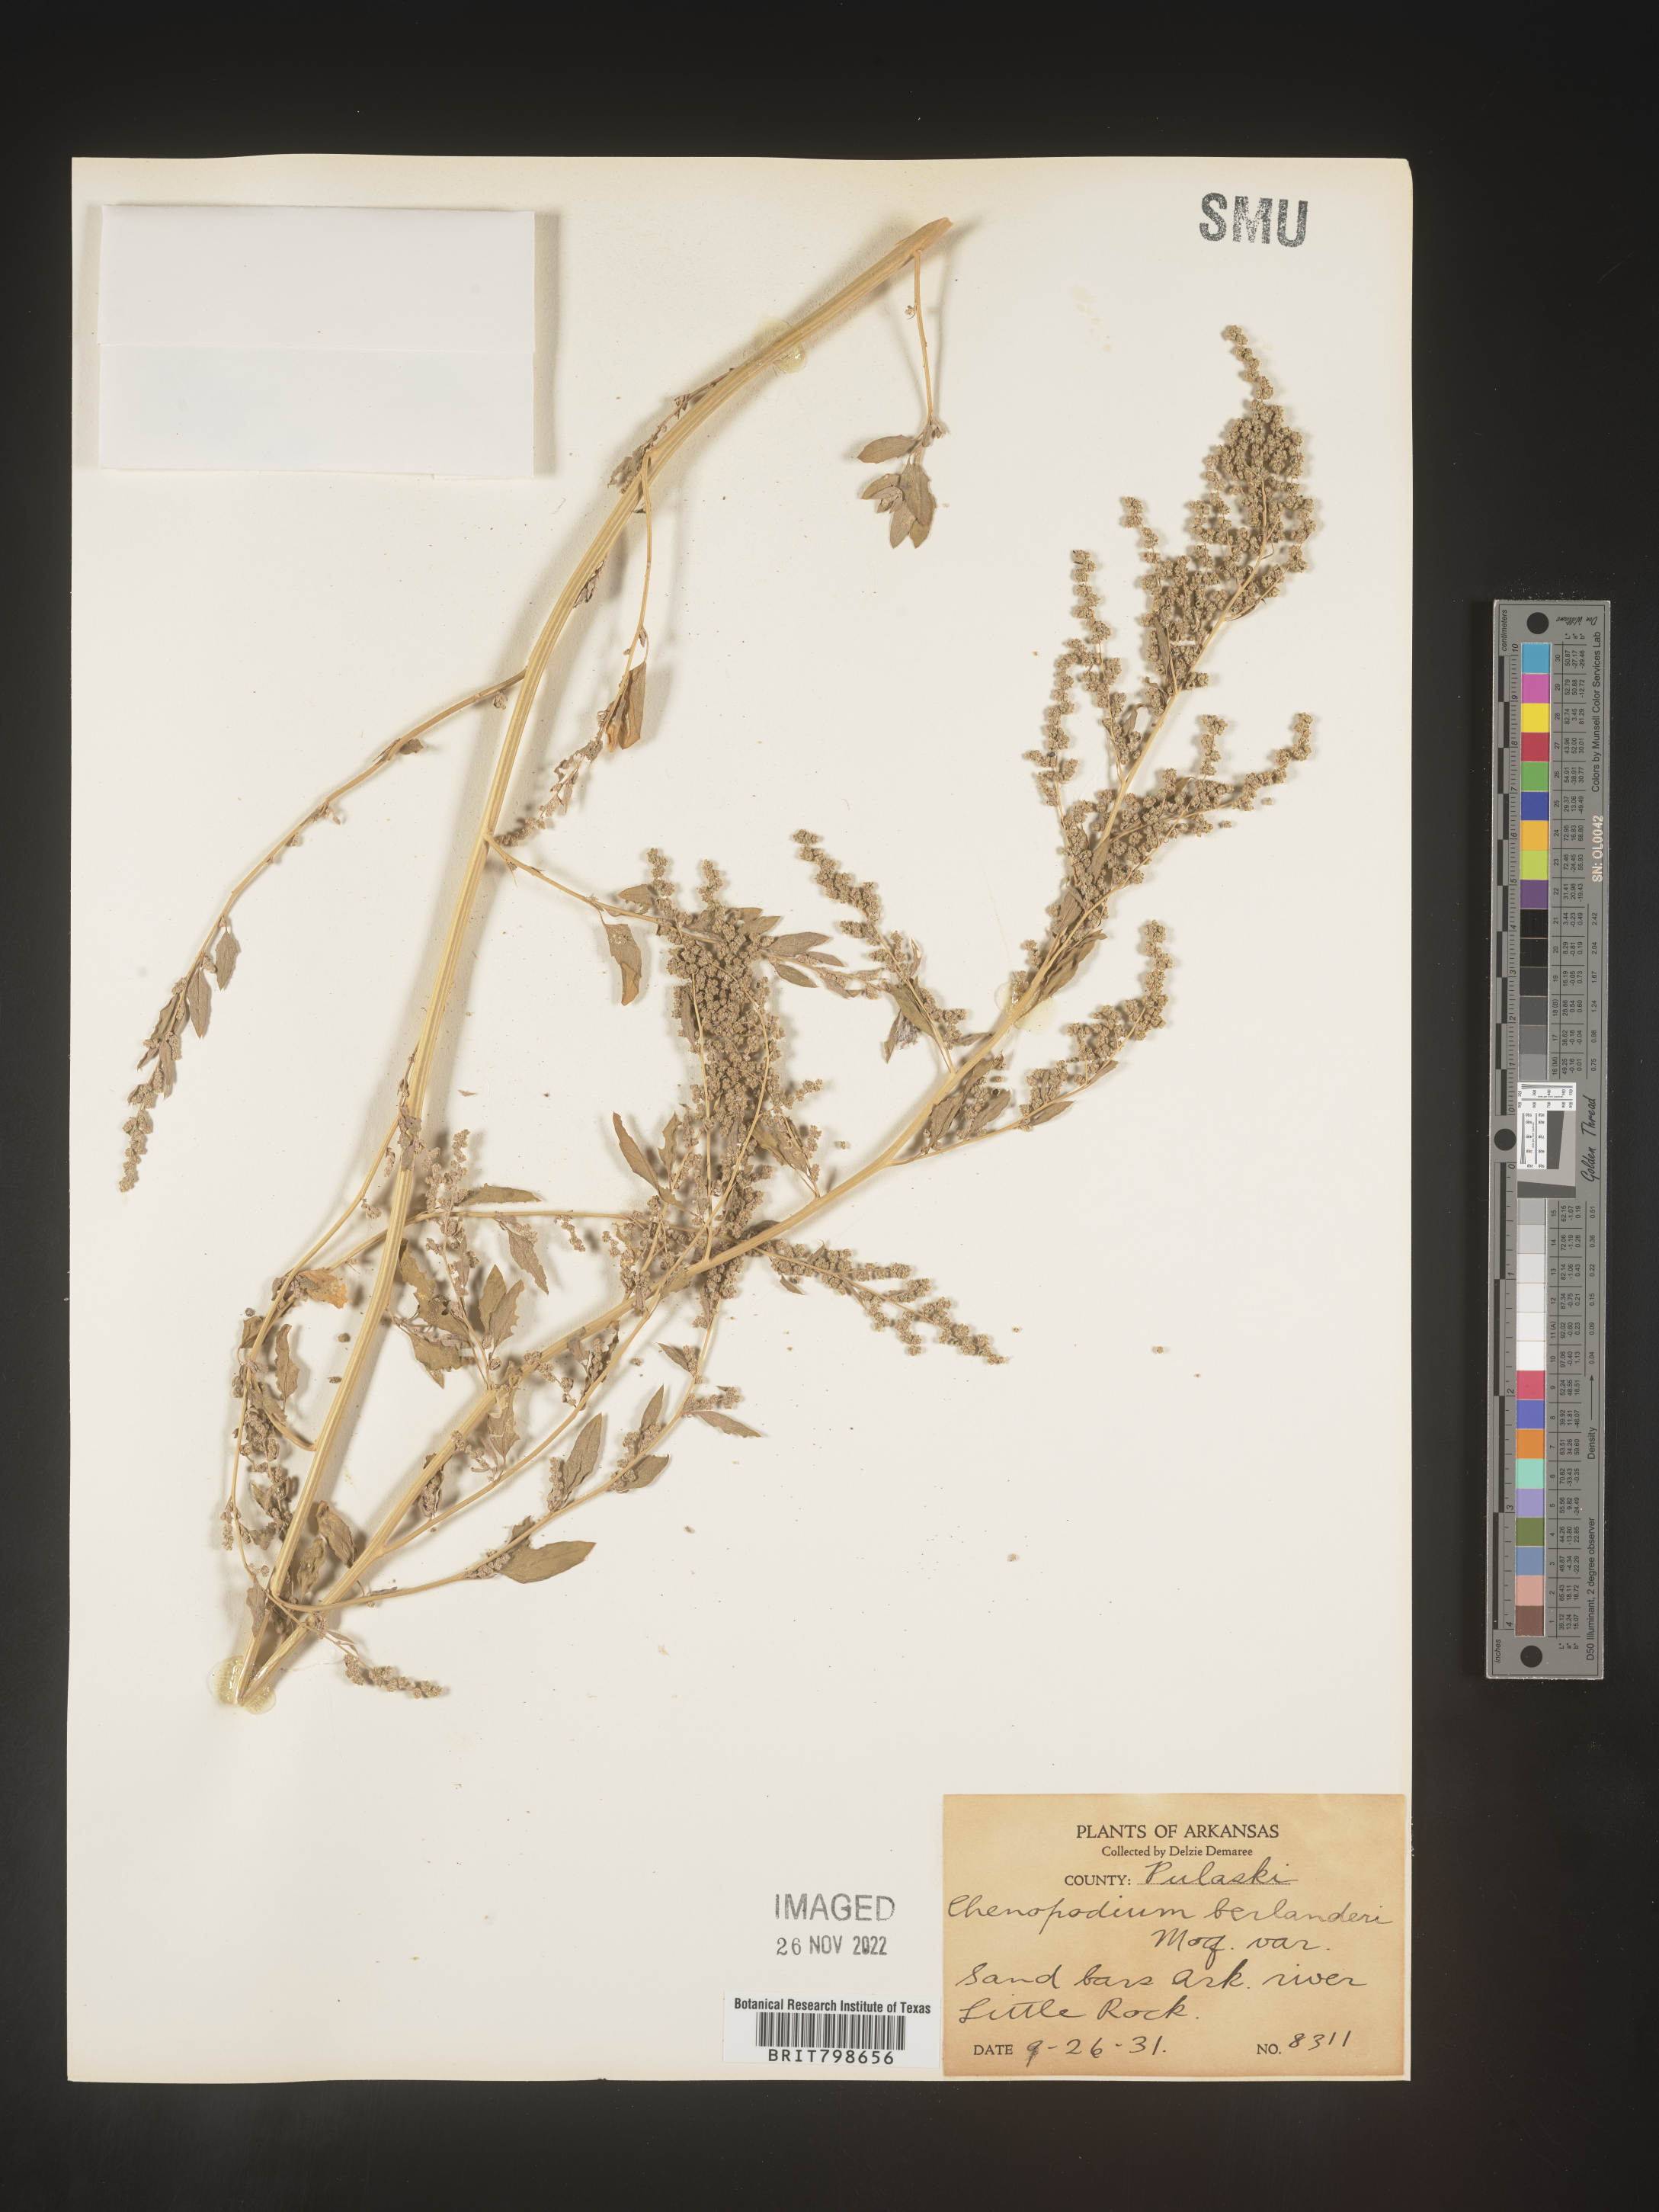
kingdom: Plantae
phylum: Tracheophyta
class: Magnoliopsida
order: Caryophyllales
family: Amaranthaceae
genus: Chenopodium
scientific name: Chenopodium berlandieri
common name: Pit-seed goosefoot
